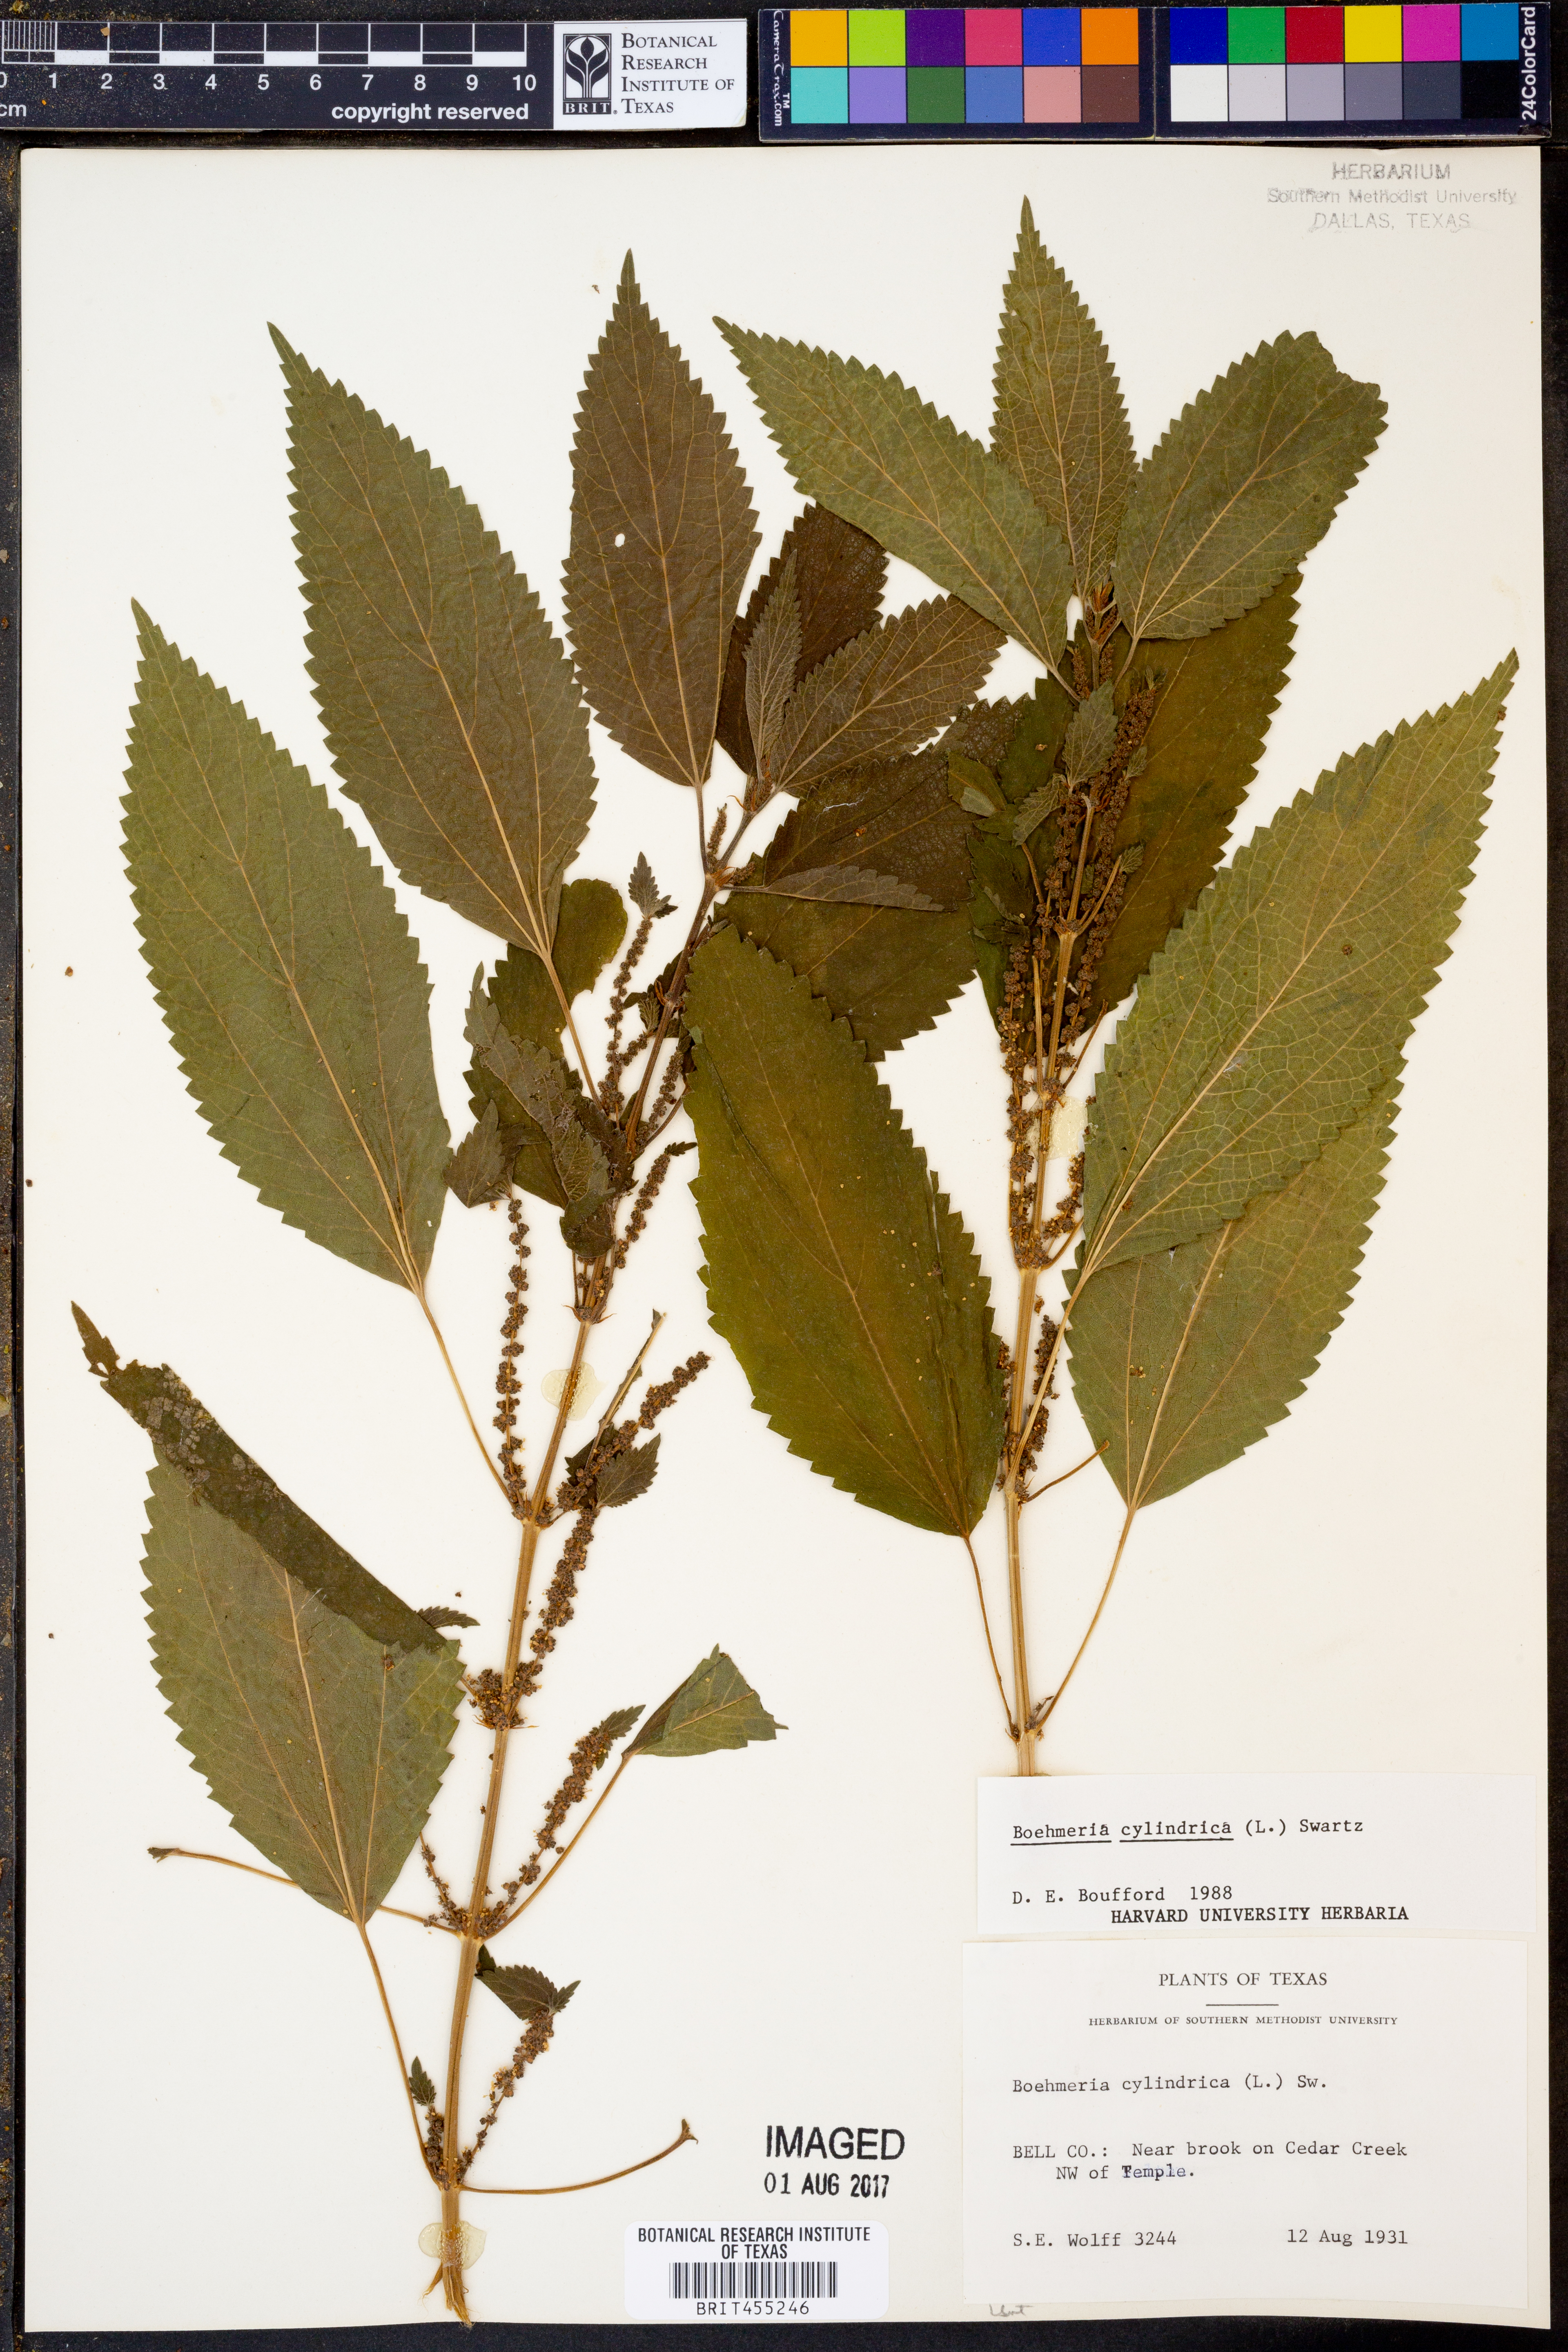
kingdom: Plantae
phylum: Tracheophyta
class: Magnoliopsida
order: Rosales
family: Urticaceae
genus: Boehmeria
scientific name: Boehmeria cylindrica
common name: Bog-hemp
